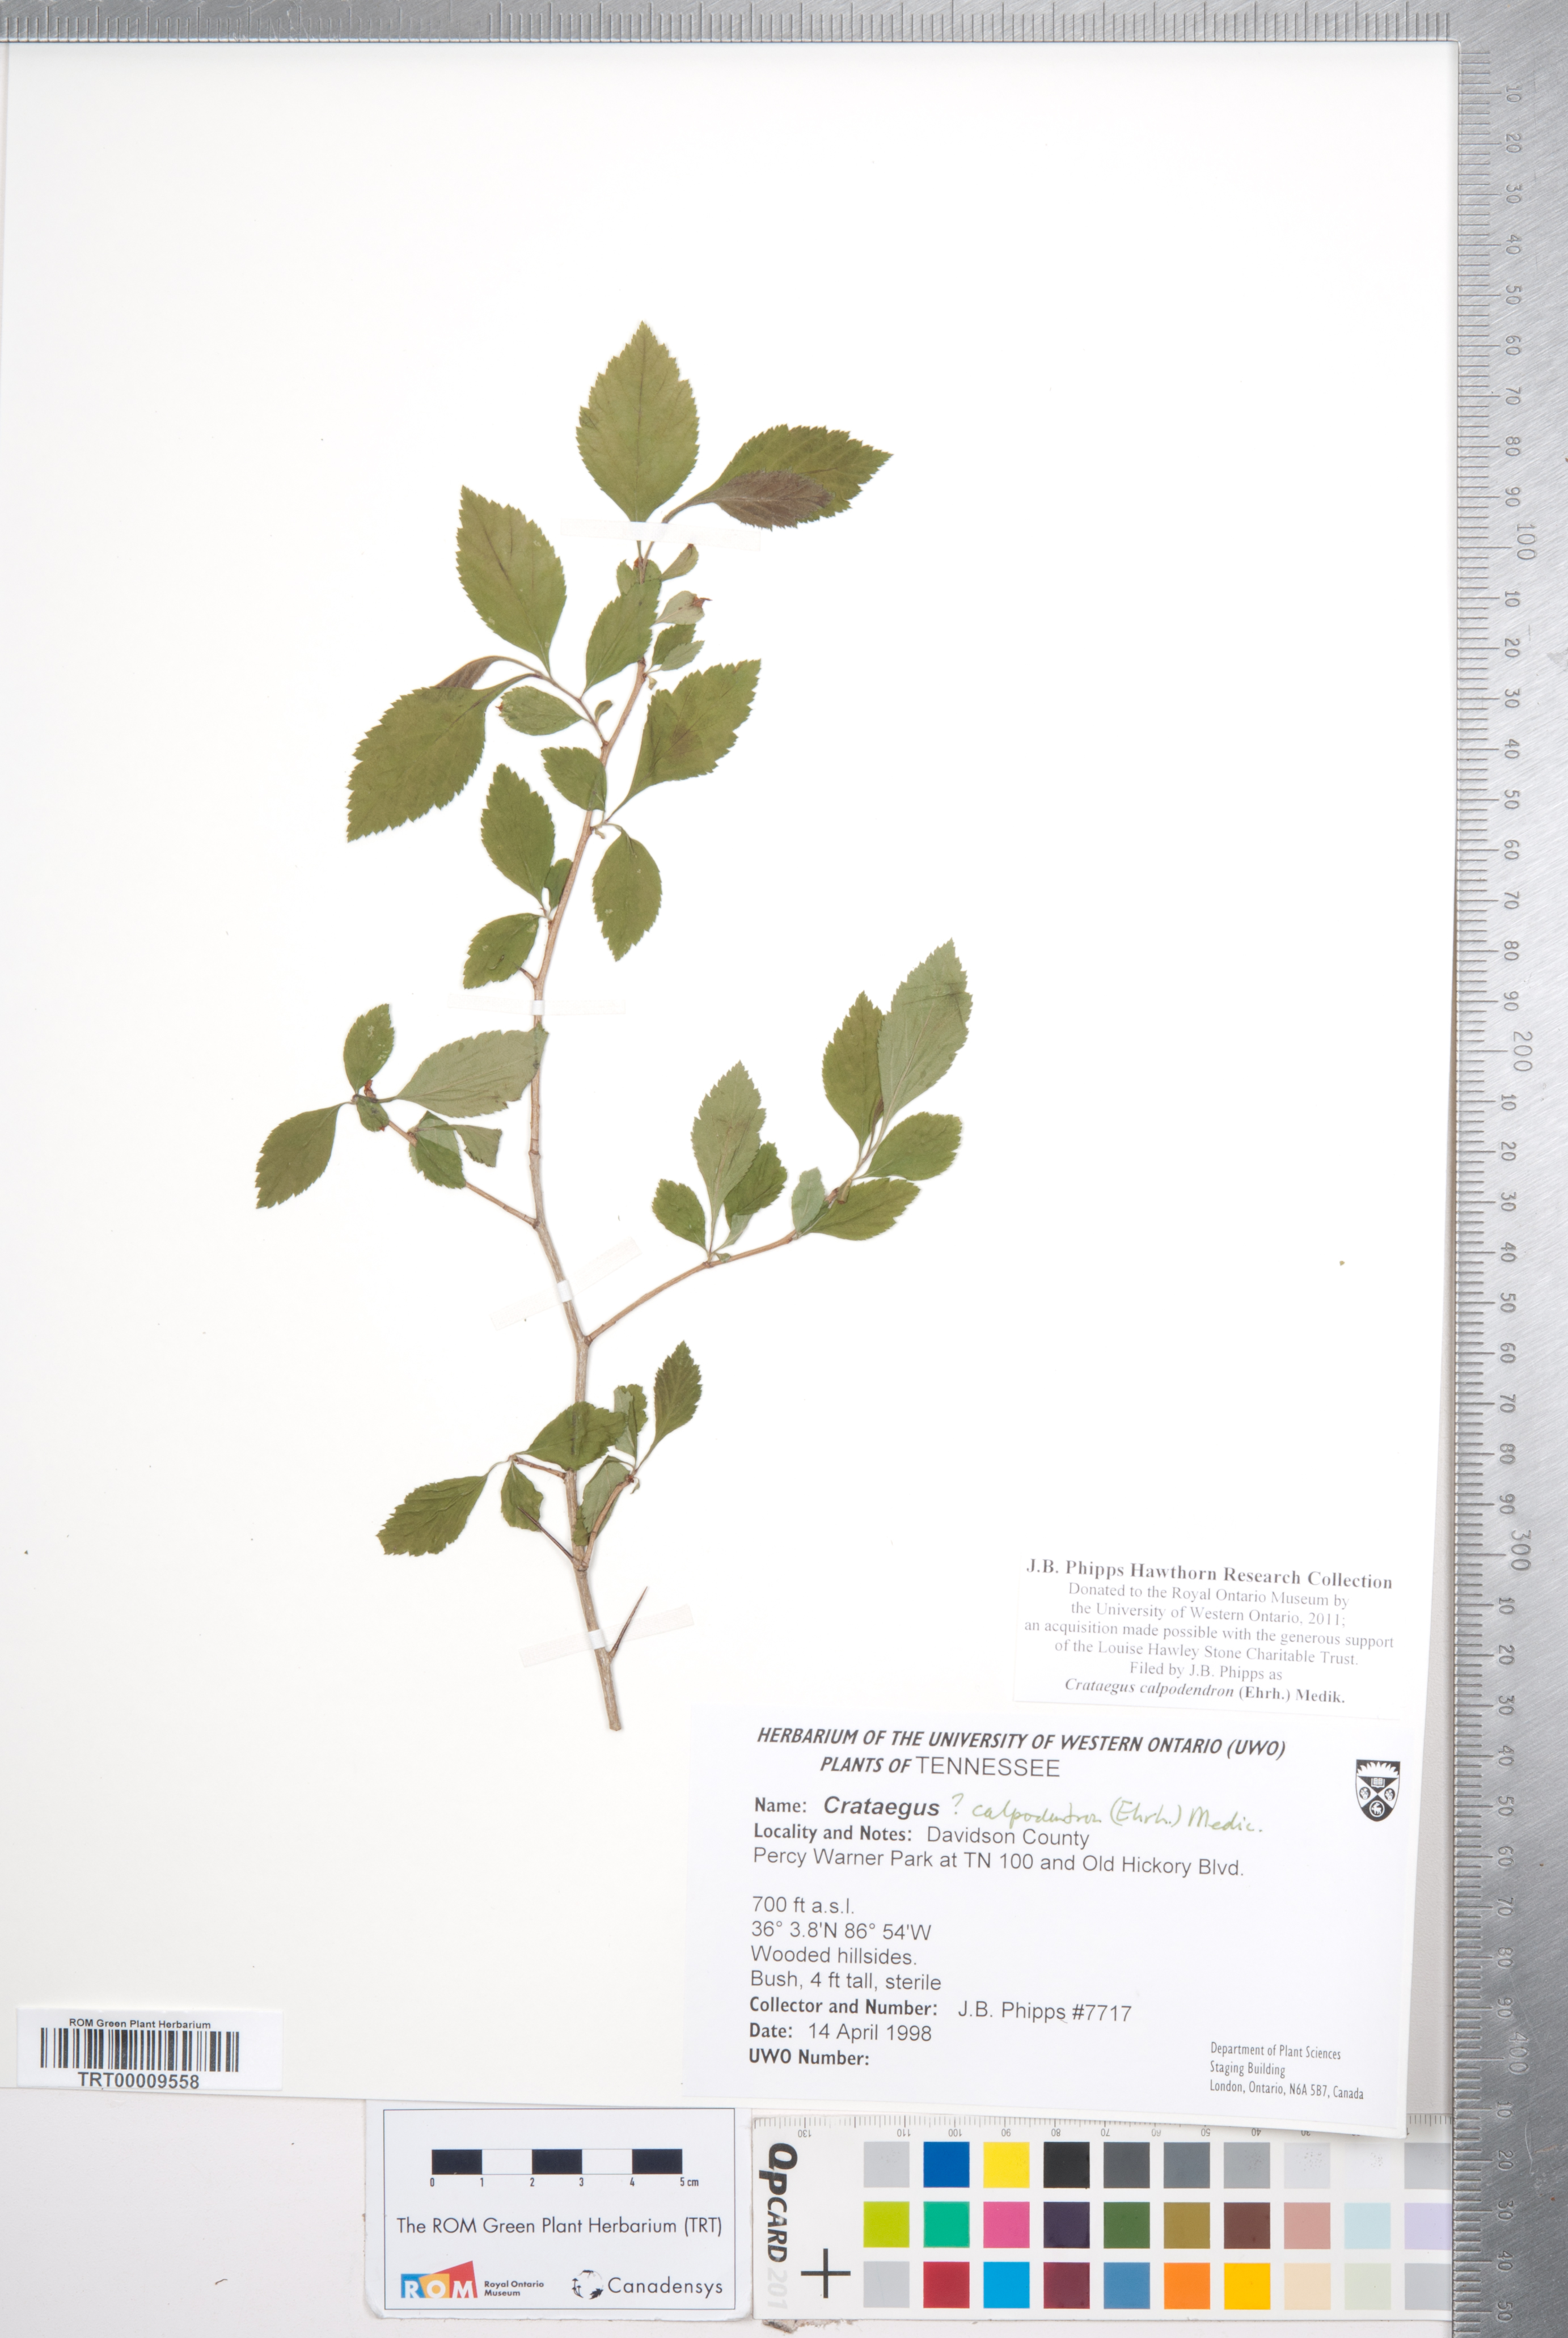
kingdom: Plantae
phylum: Tracheophyta
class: Magnoliopsida
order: Rosales
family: Rosaceae
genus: Crataegus
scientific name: Crataegus calpodendron
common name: Pear hawthorn
